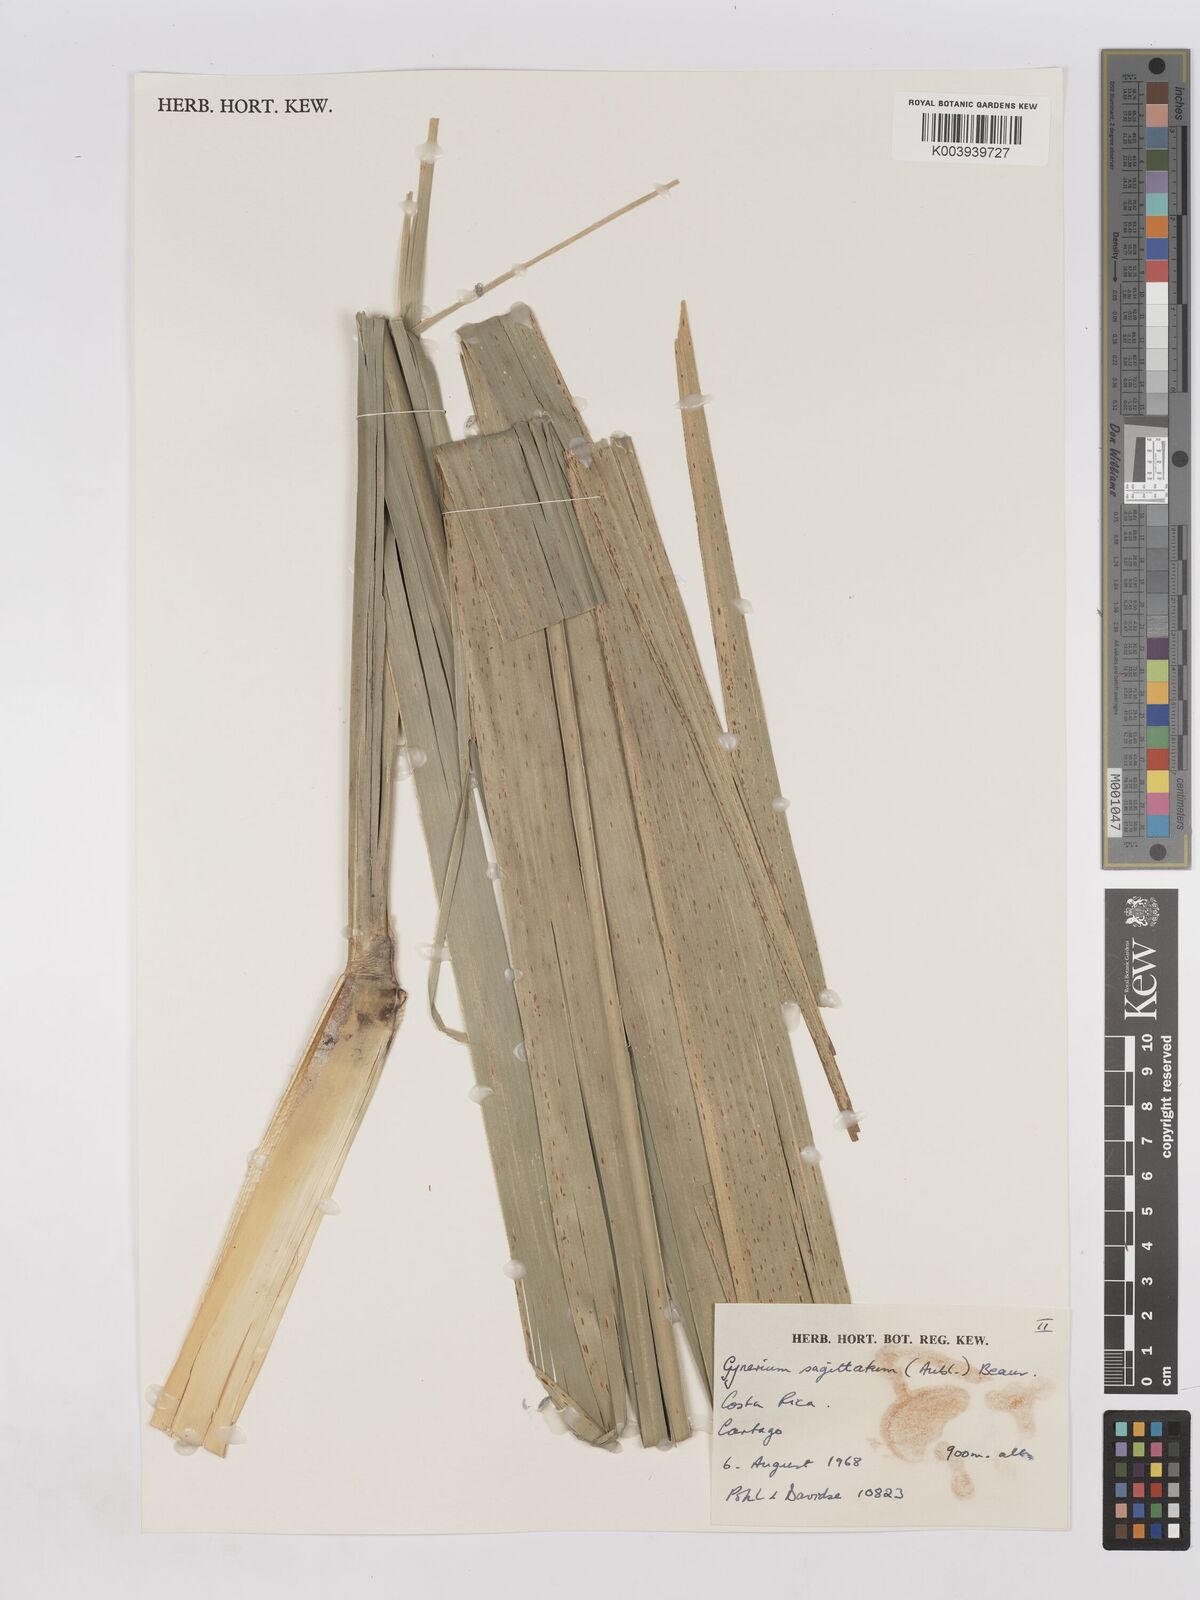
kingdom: Plantae
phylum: Tracheophyta
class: Liliopsida
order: Poales
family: Poaceae
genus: Gynerium
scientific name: Gynerium sagittatum
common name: Wild cane
